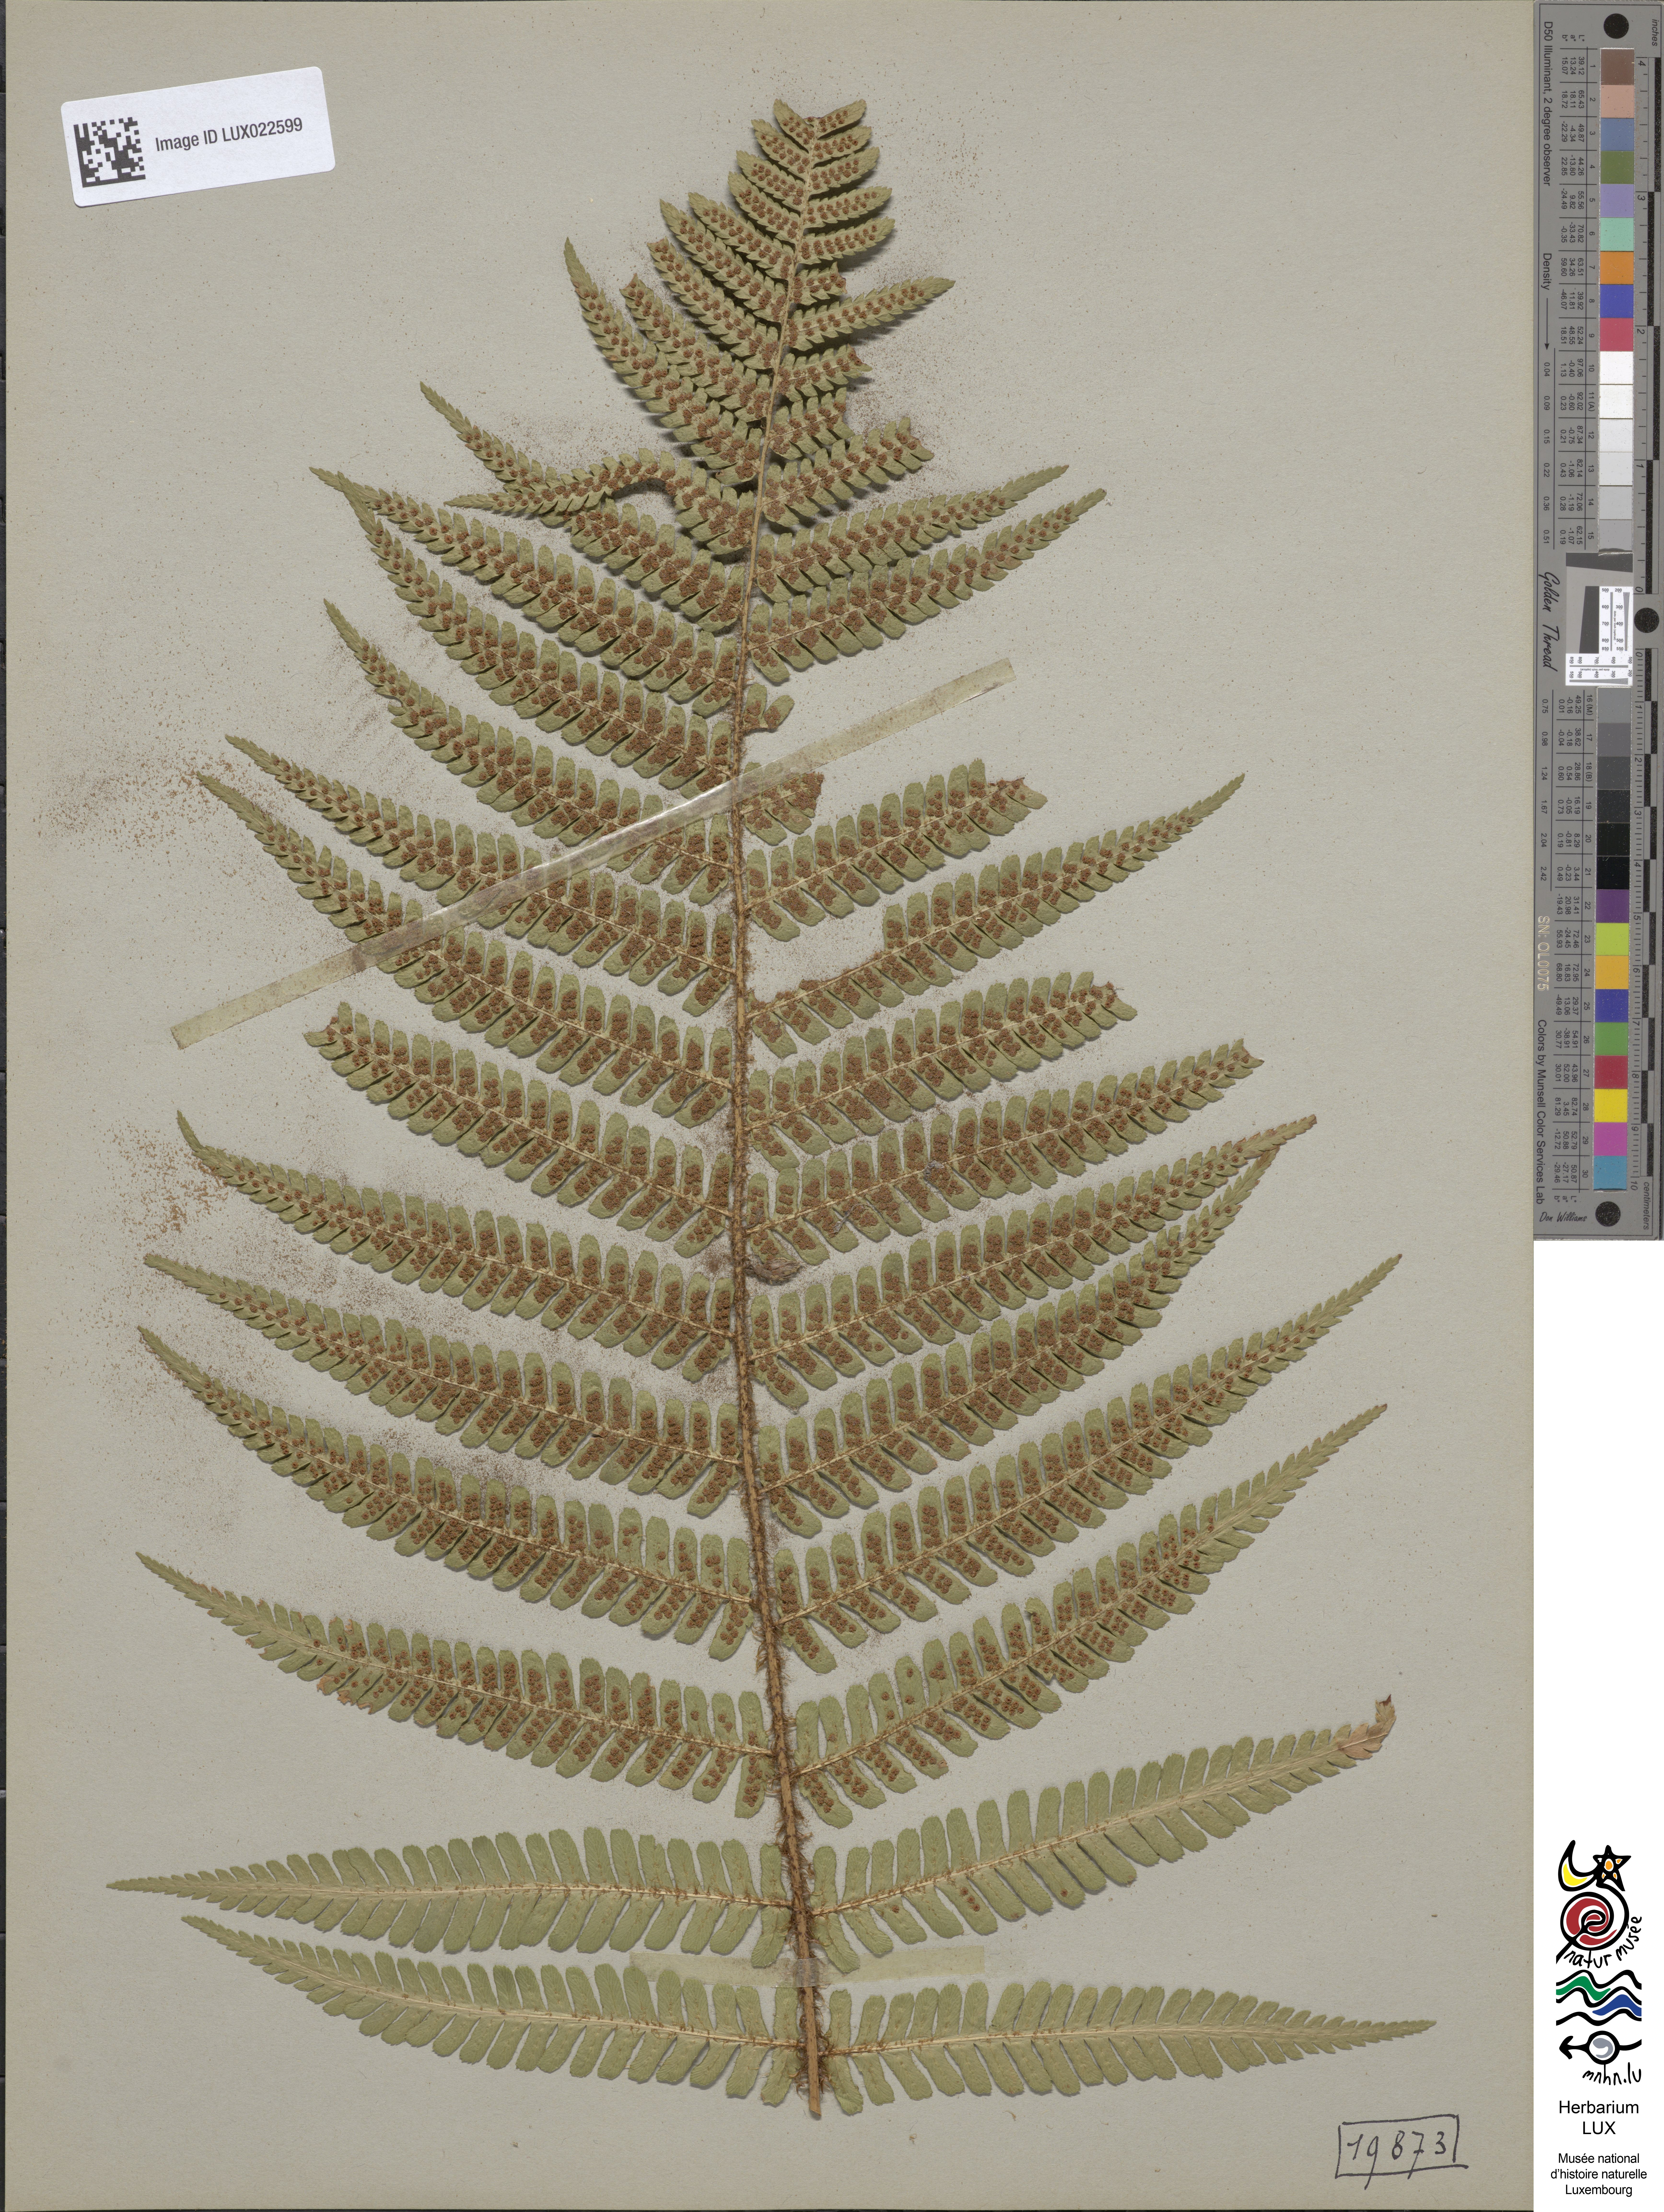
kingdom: Plantae
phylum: Tracheophyta
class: Polypodiopsida
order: Polypodiales
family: Dryopteridaceae
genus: Dryopteris
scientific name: Dryopteris borreri
